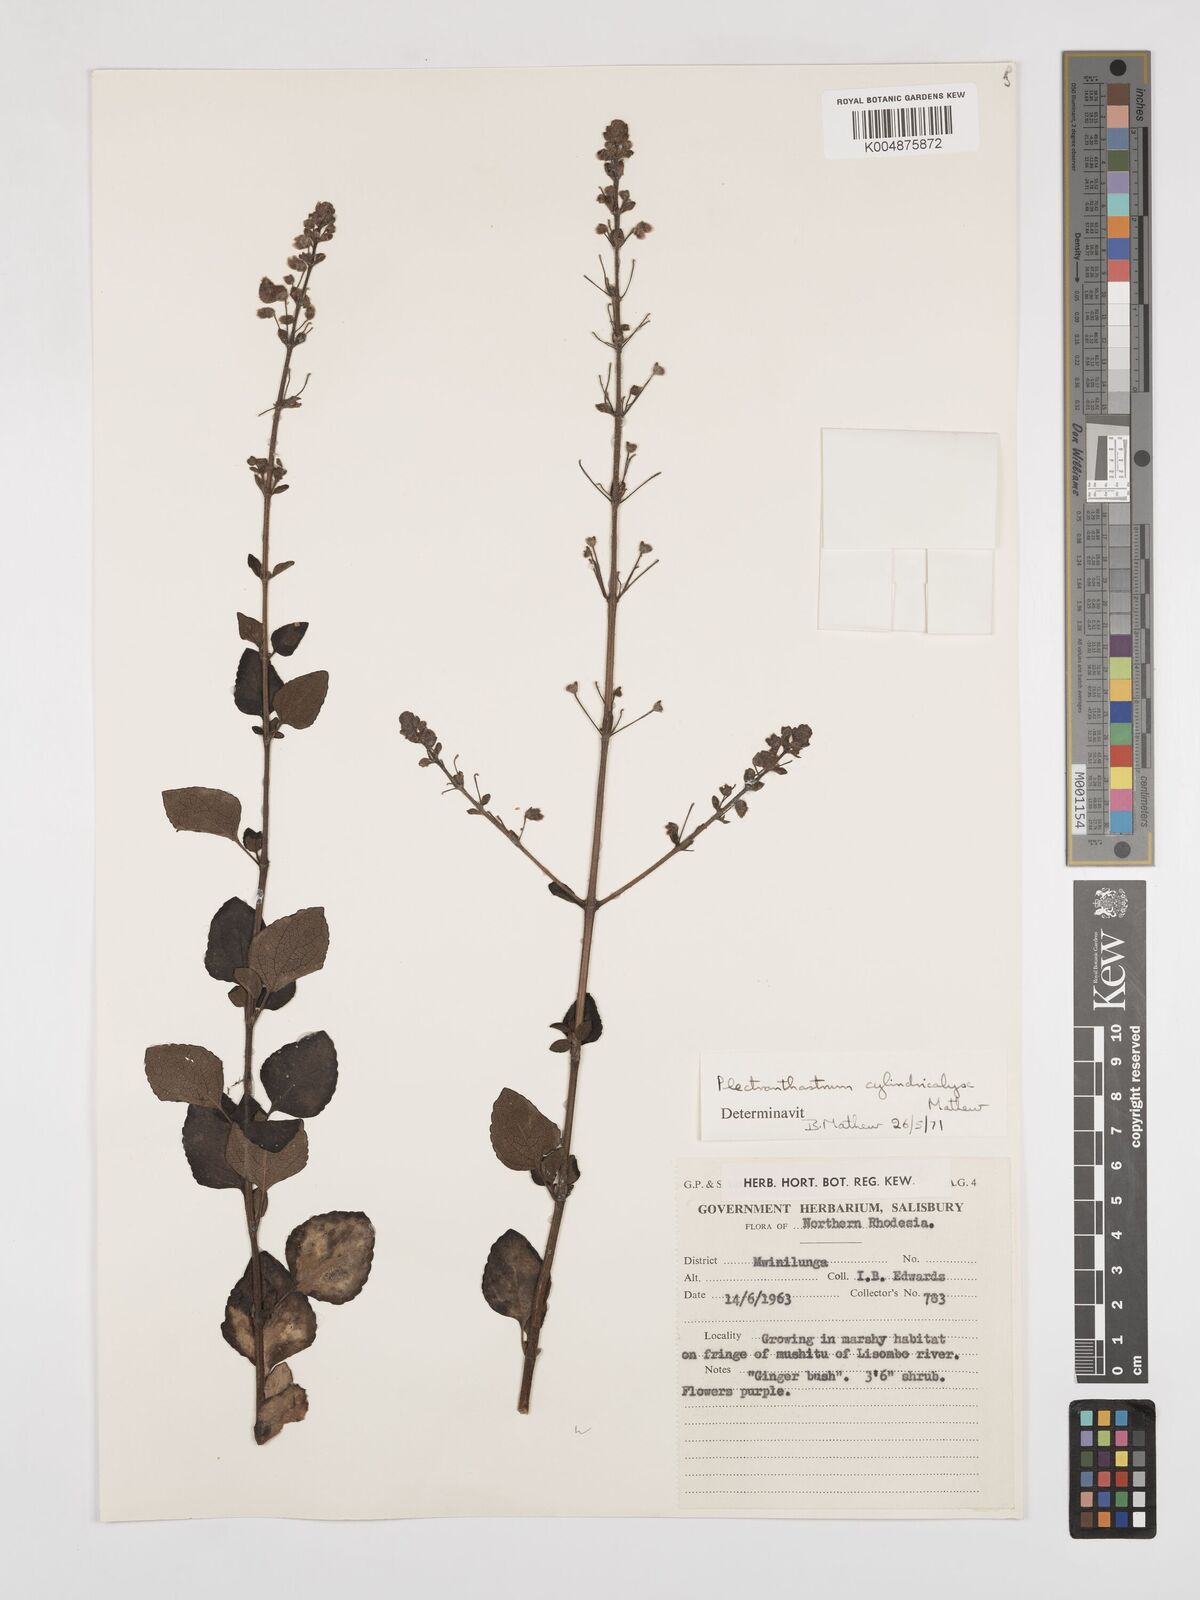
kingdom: Plantae
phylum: Tracheophyta
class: Magnoliopsida
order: Lamiales
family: Lamiaceae
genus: Alvesia
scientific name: Alvesia cylindricalyx
